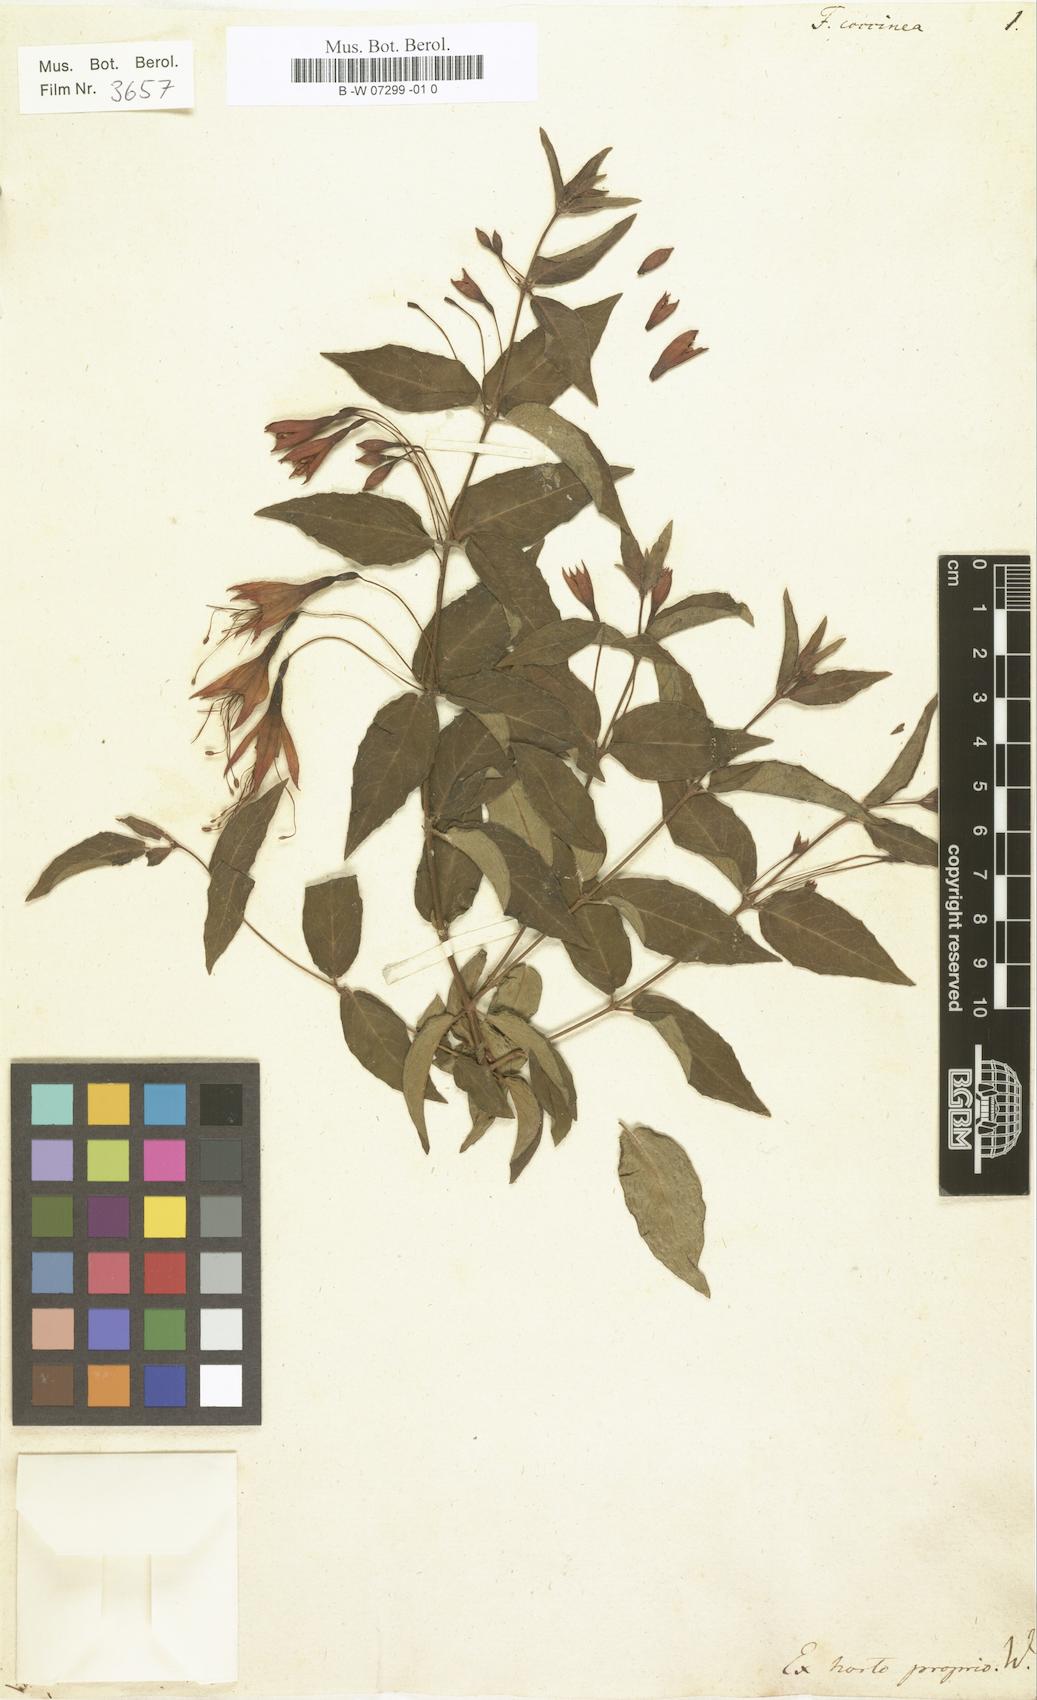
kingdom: Plantae
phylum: Tracheophyta
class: Magnoliopsida
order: Myrtales
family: Onagraceae
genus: Fuchsia
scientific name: Fuchsia coccinea
